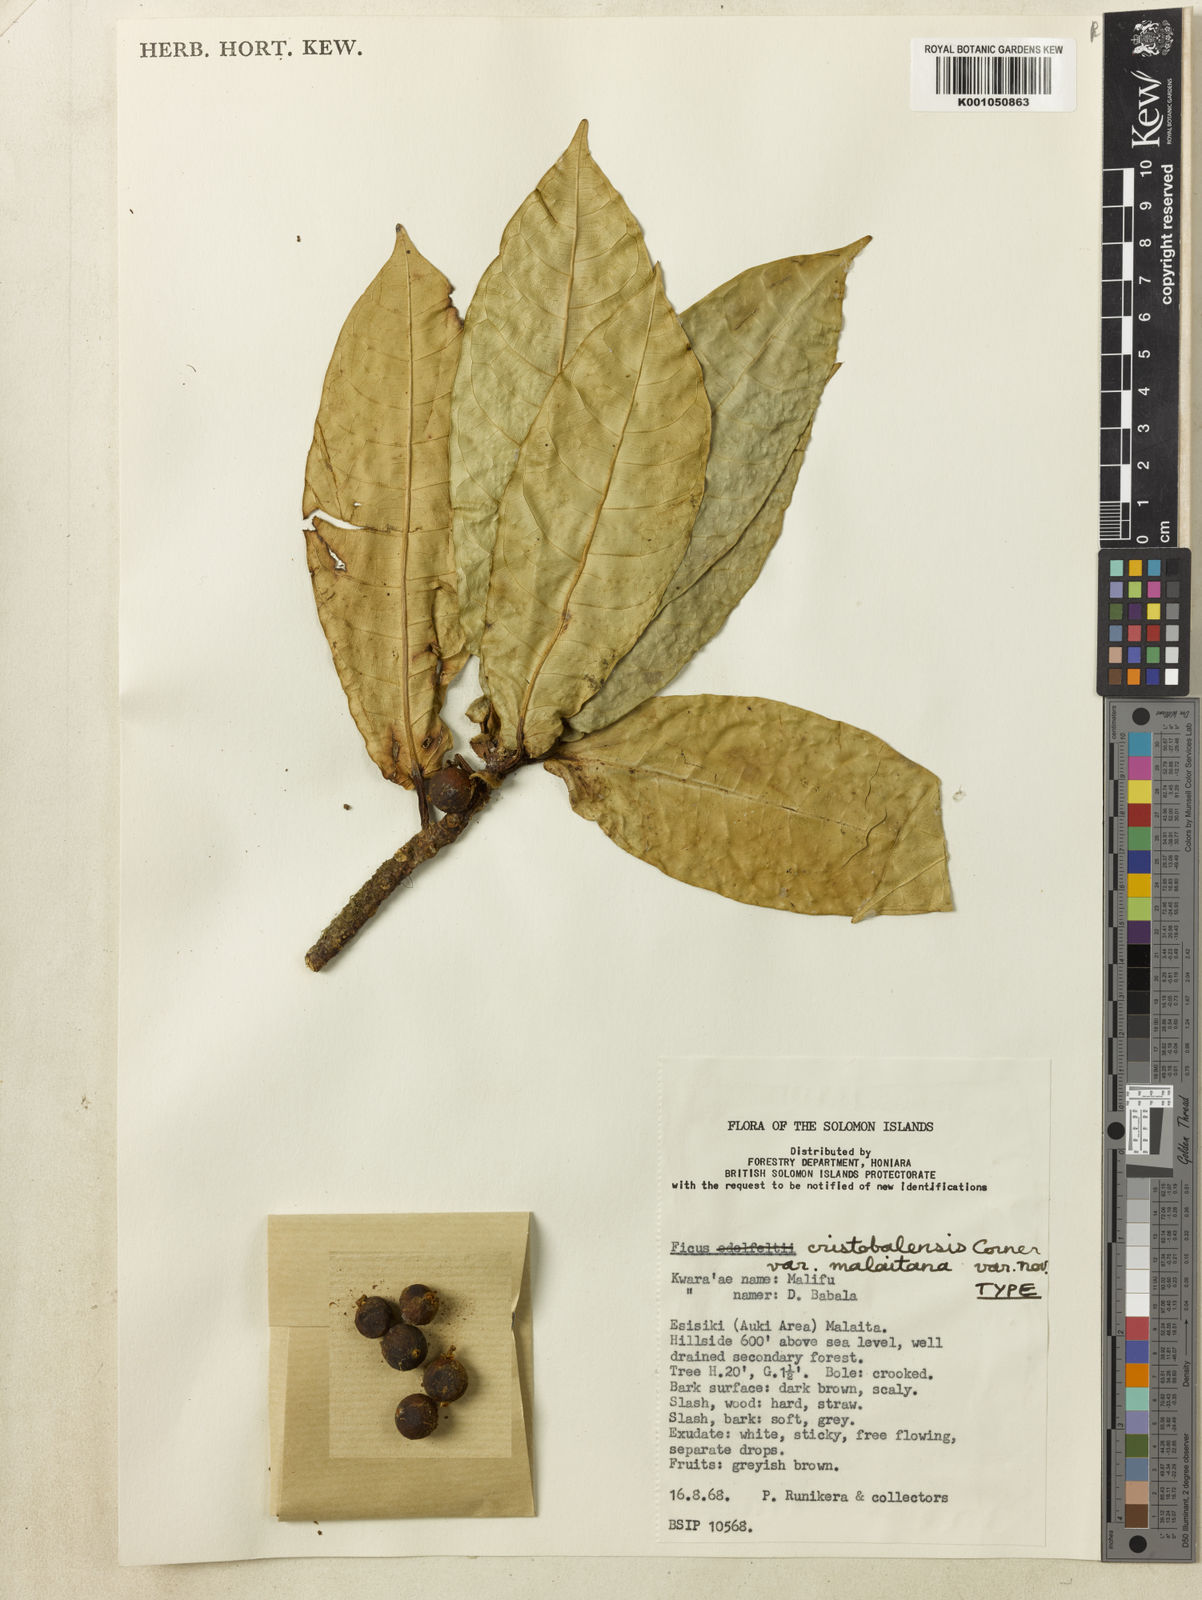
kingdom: Plantae
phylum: Tracheophyta
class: Magnoliopsida
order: Rosales
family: Moraceae
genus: Ficus
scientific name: Ficus novae-georgiae
